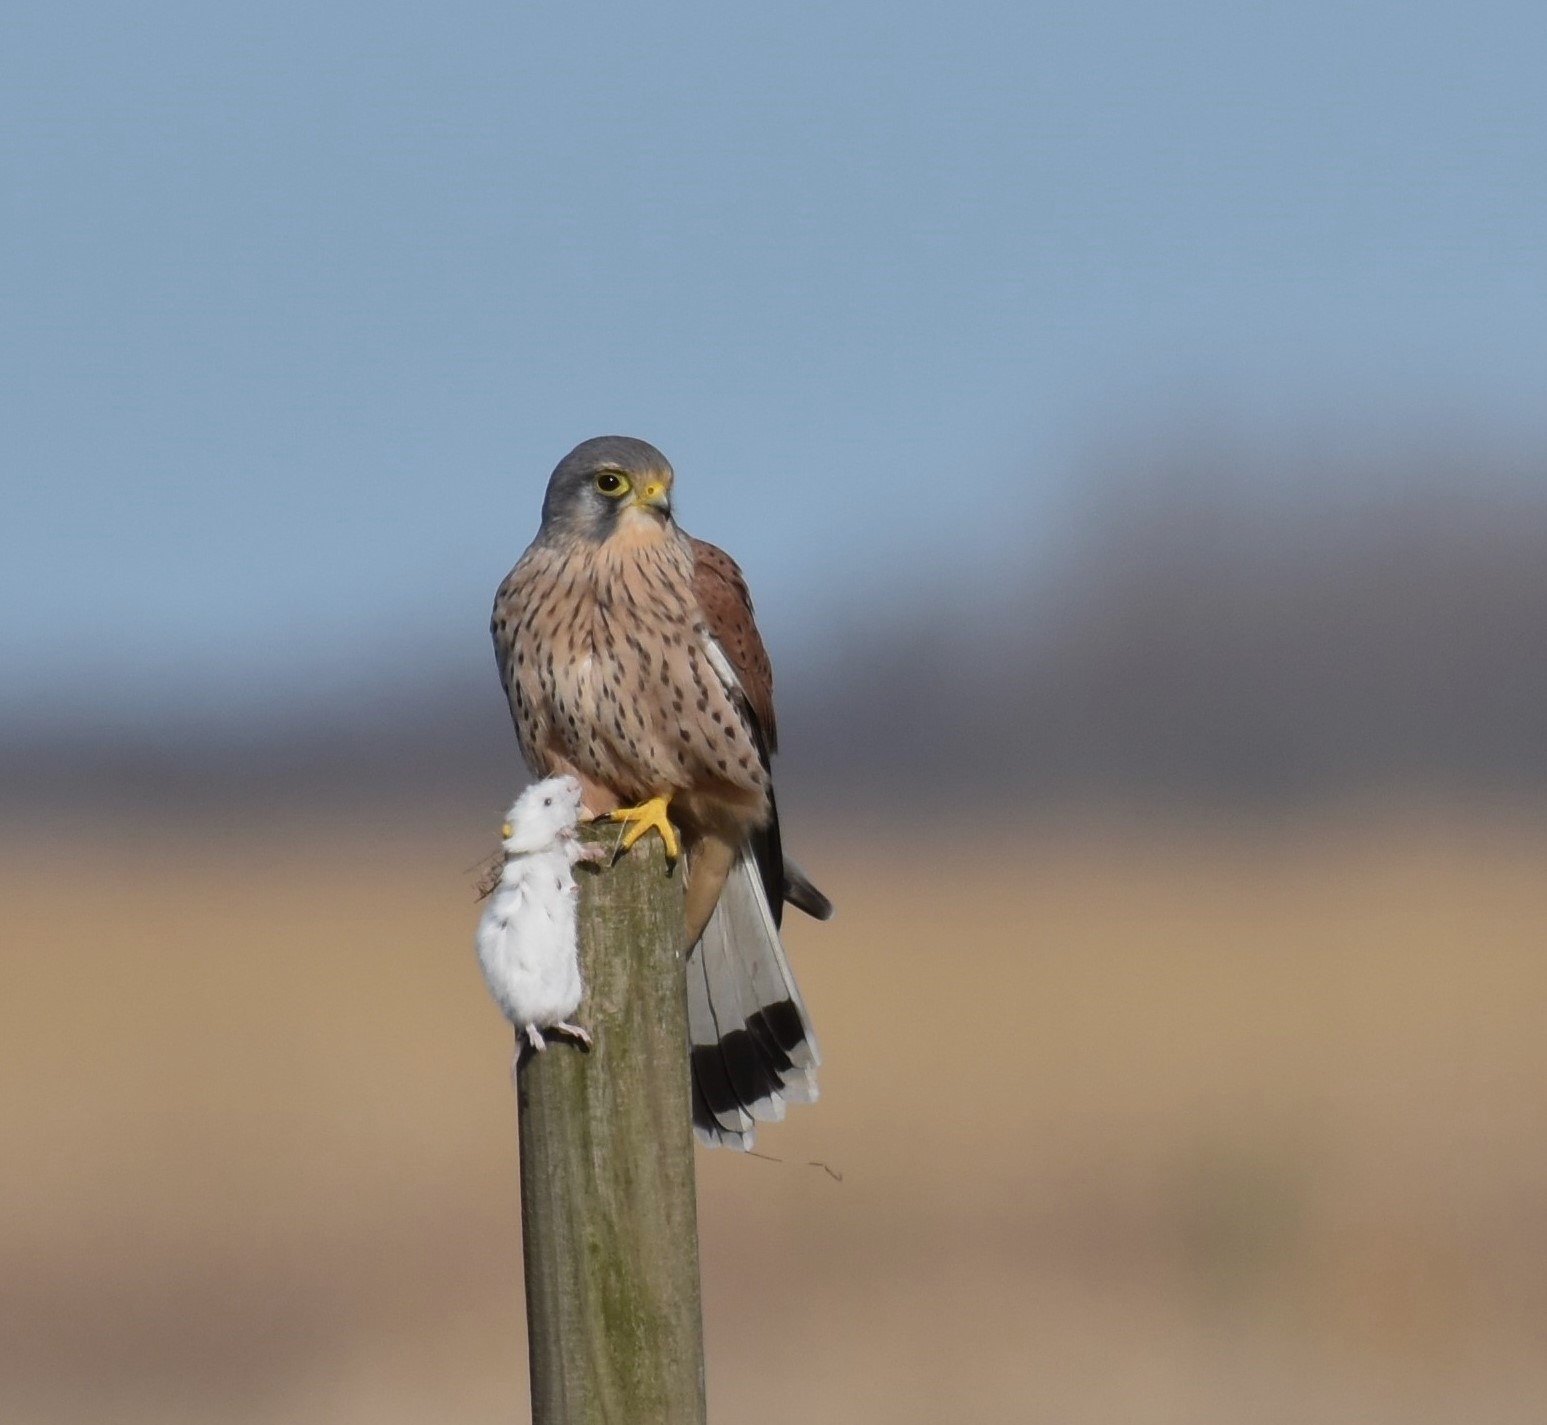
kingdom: Animalia
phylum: Chordata
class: Aves
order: Falconiformes
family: Falconidae
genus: Falco
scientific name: Falco tinnunculus
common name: Tårnfalk
